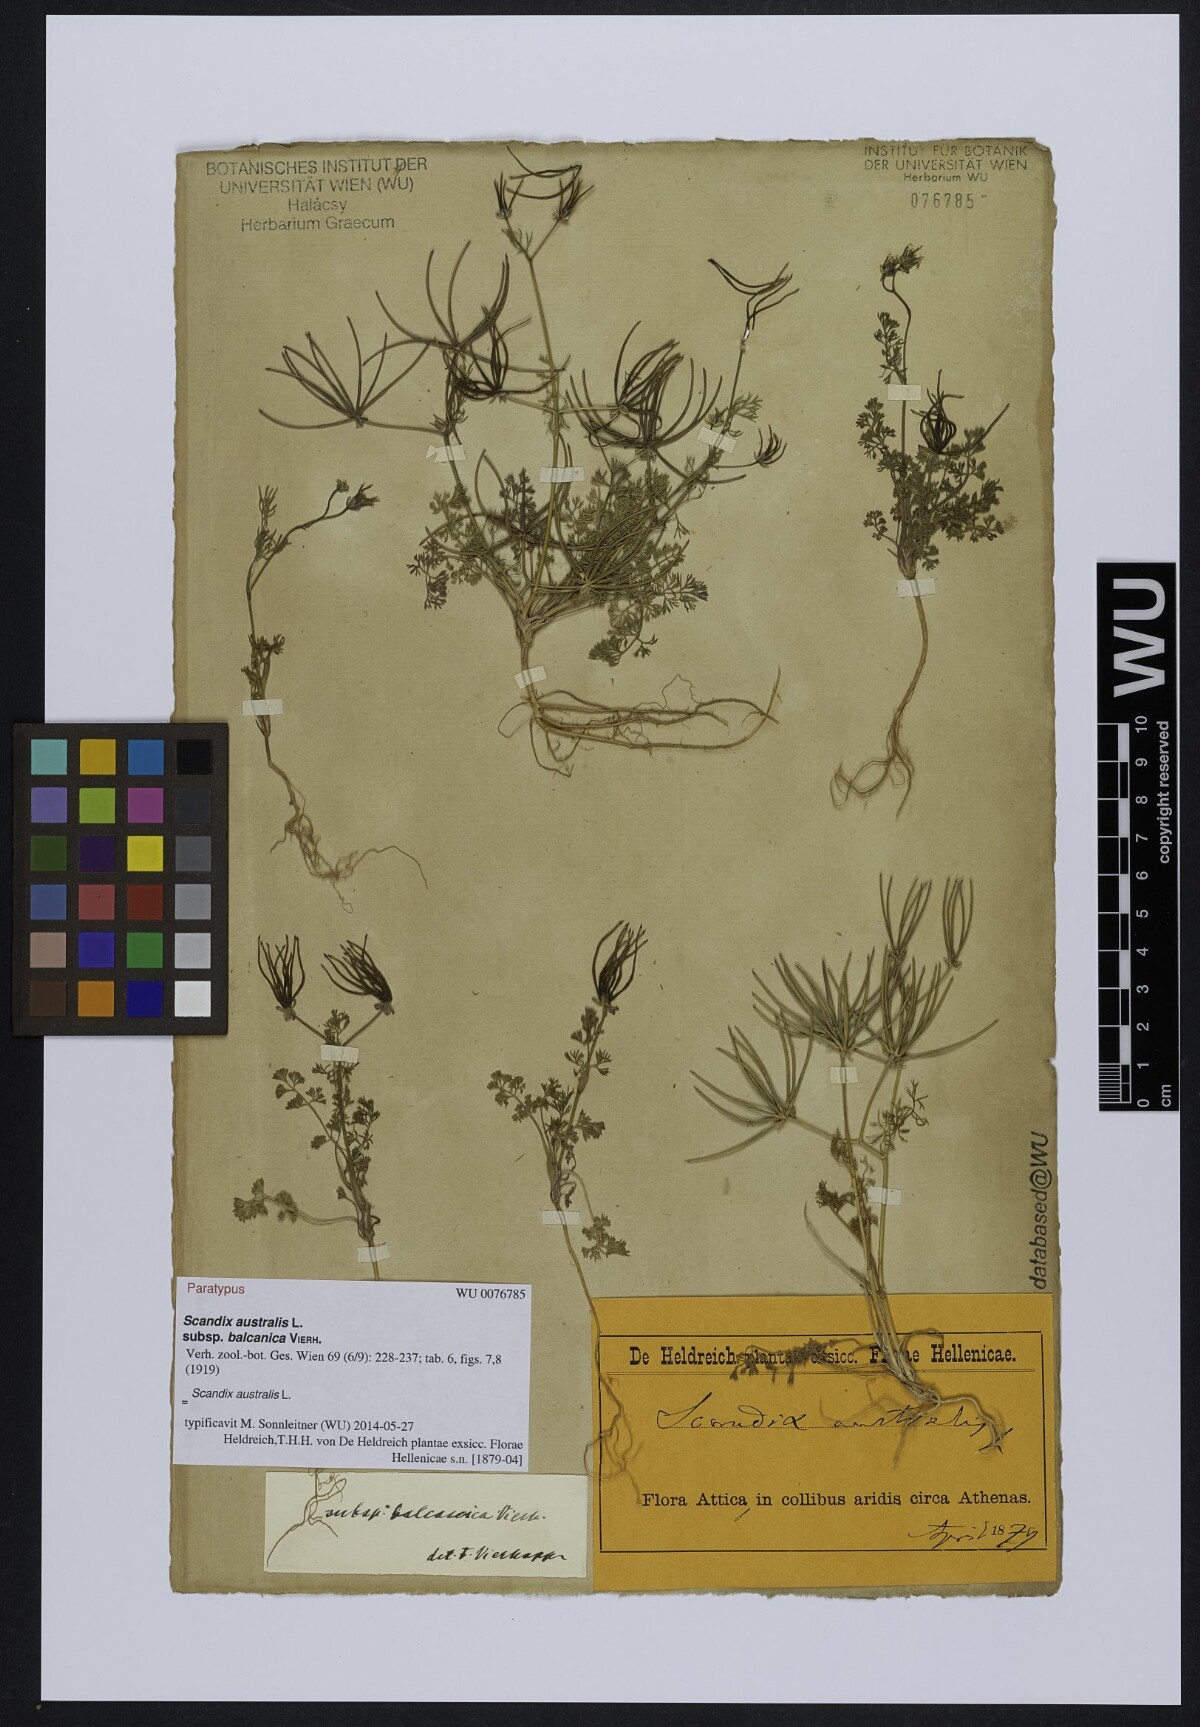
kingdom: Plantae
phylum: Tracheophyta
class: Magnoliopsida
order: Apiales
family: Apiaceae
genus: Scandix
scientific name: Scandix australis
